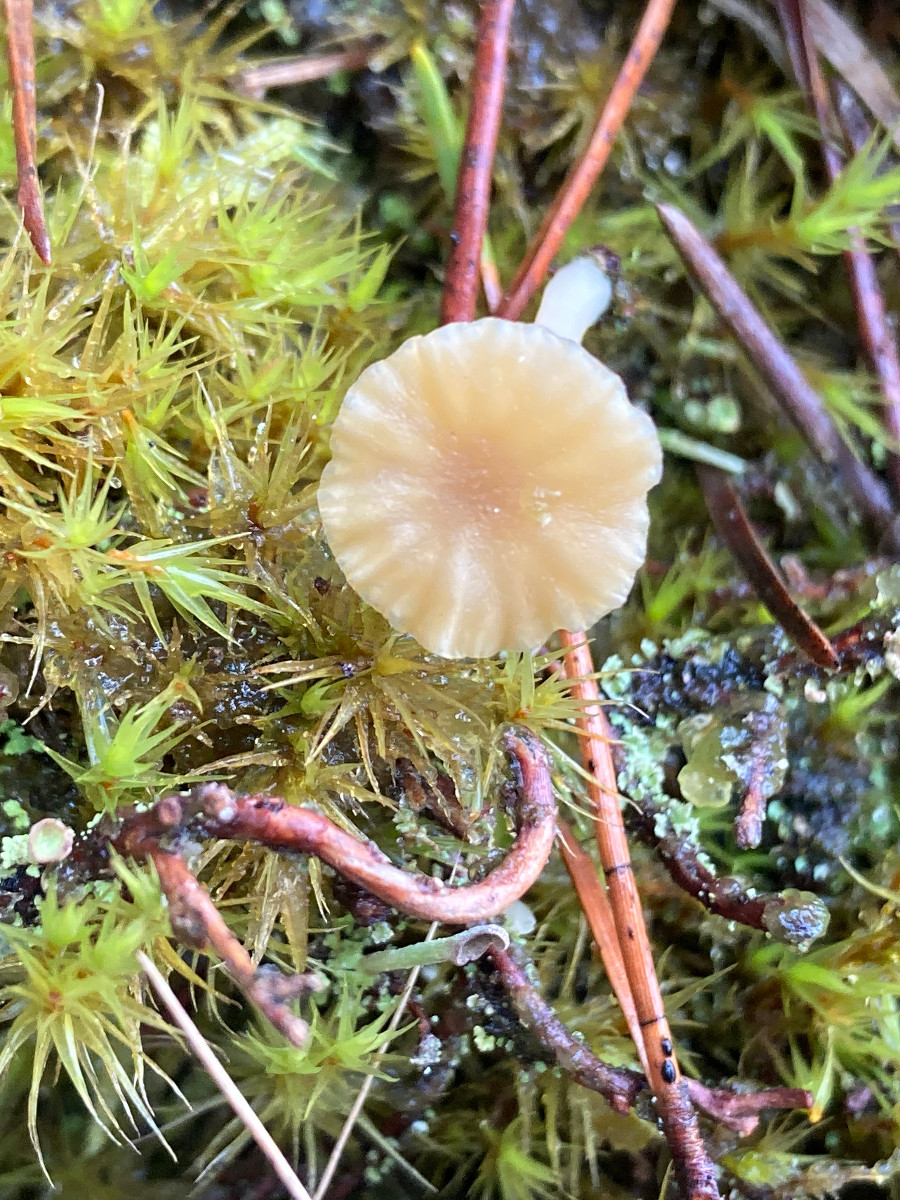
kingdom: Fungi
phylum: Basidiomycota
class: Agaricomycetes
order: Agaricales
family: Hygrophoraceae
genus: Lichenomphalia
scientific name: Lichenomphalia umbellifera
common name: tørve-lavhat
